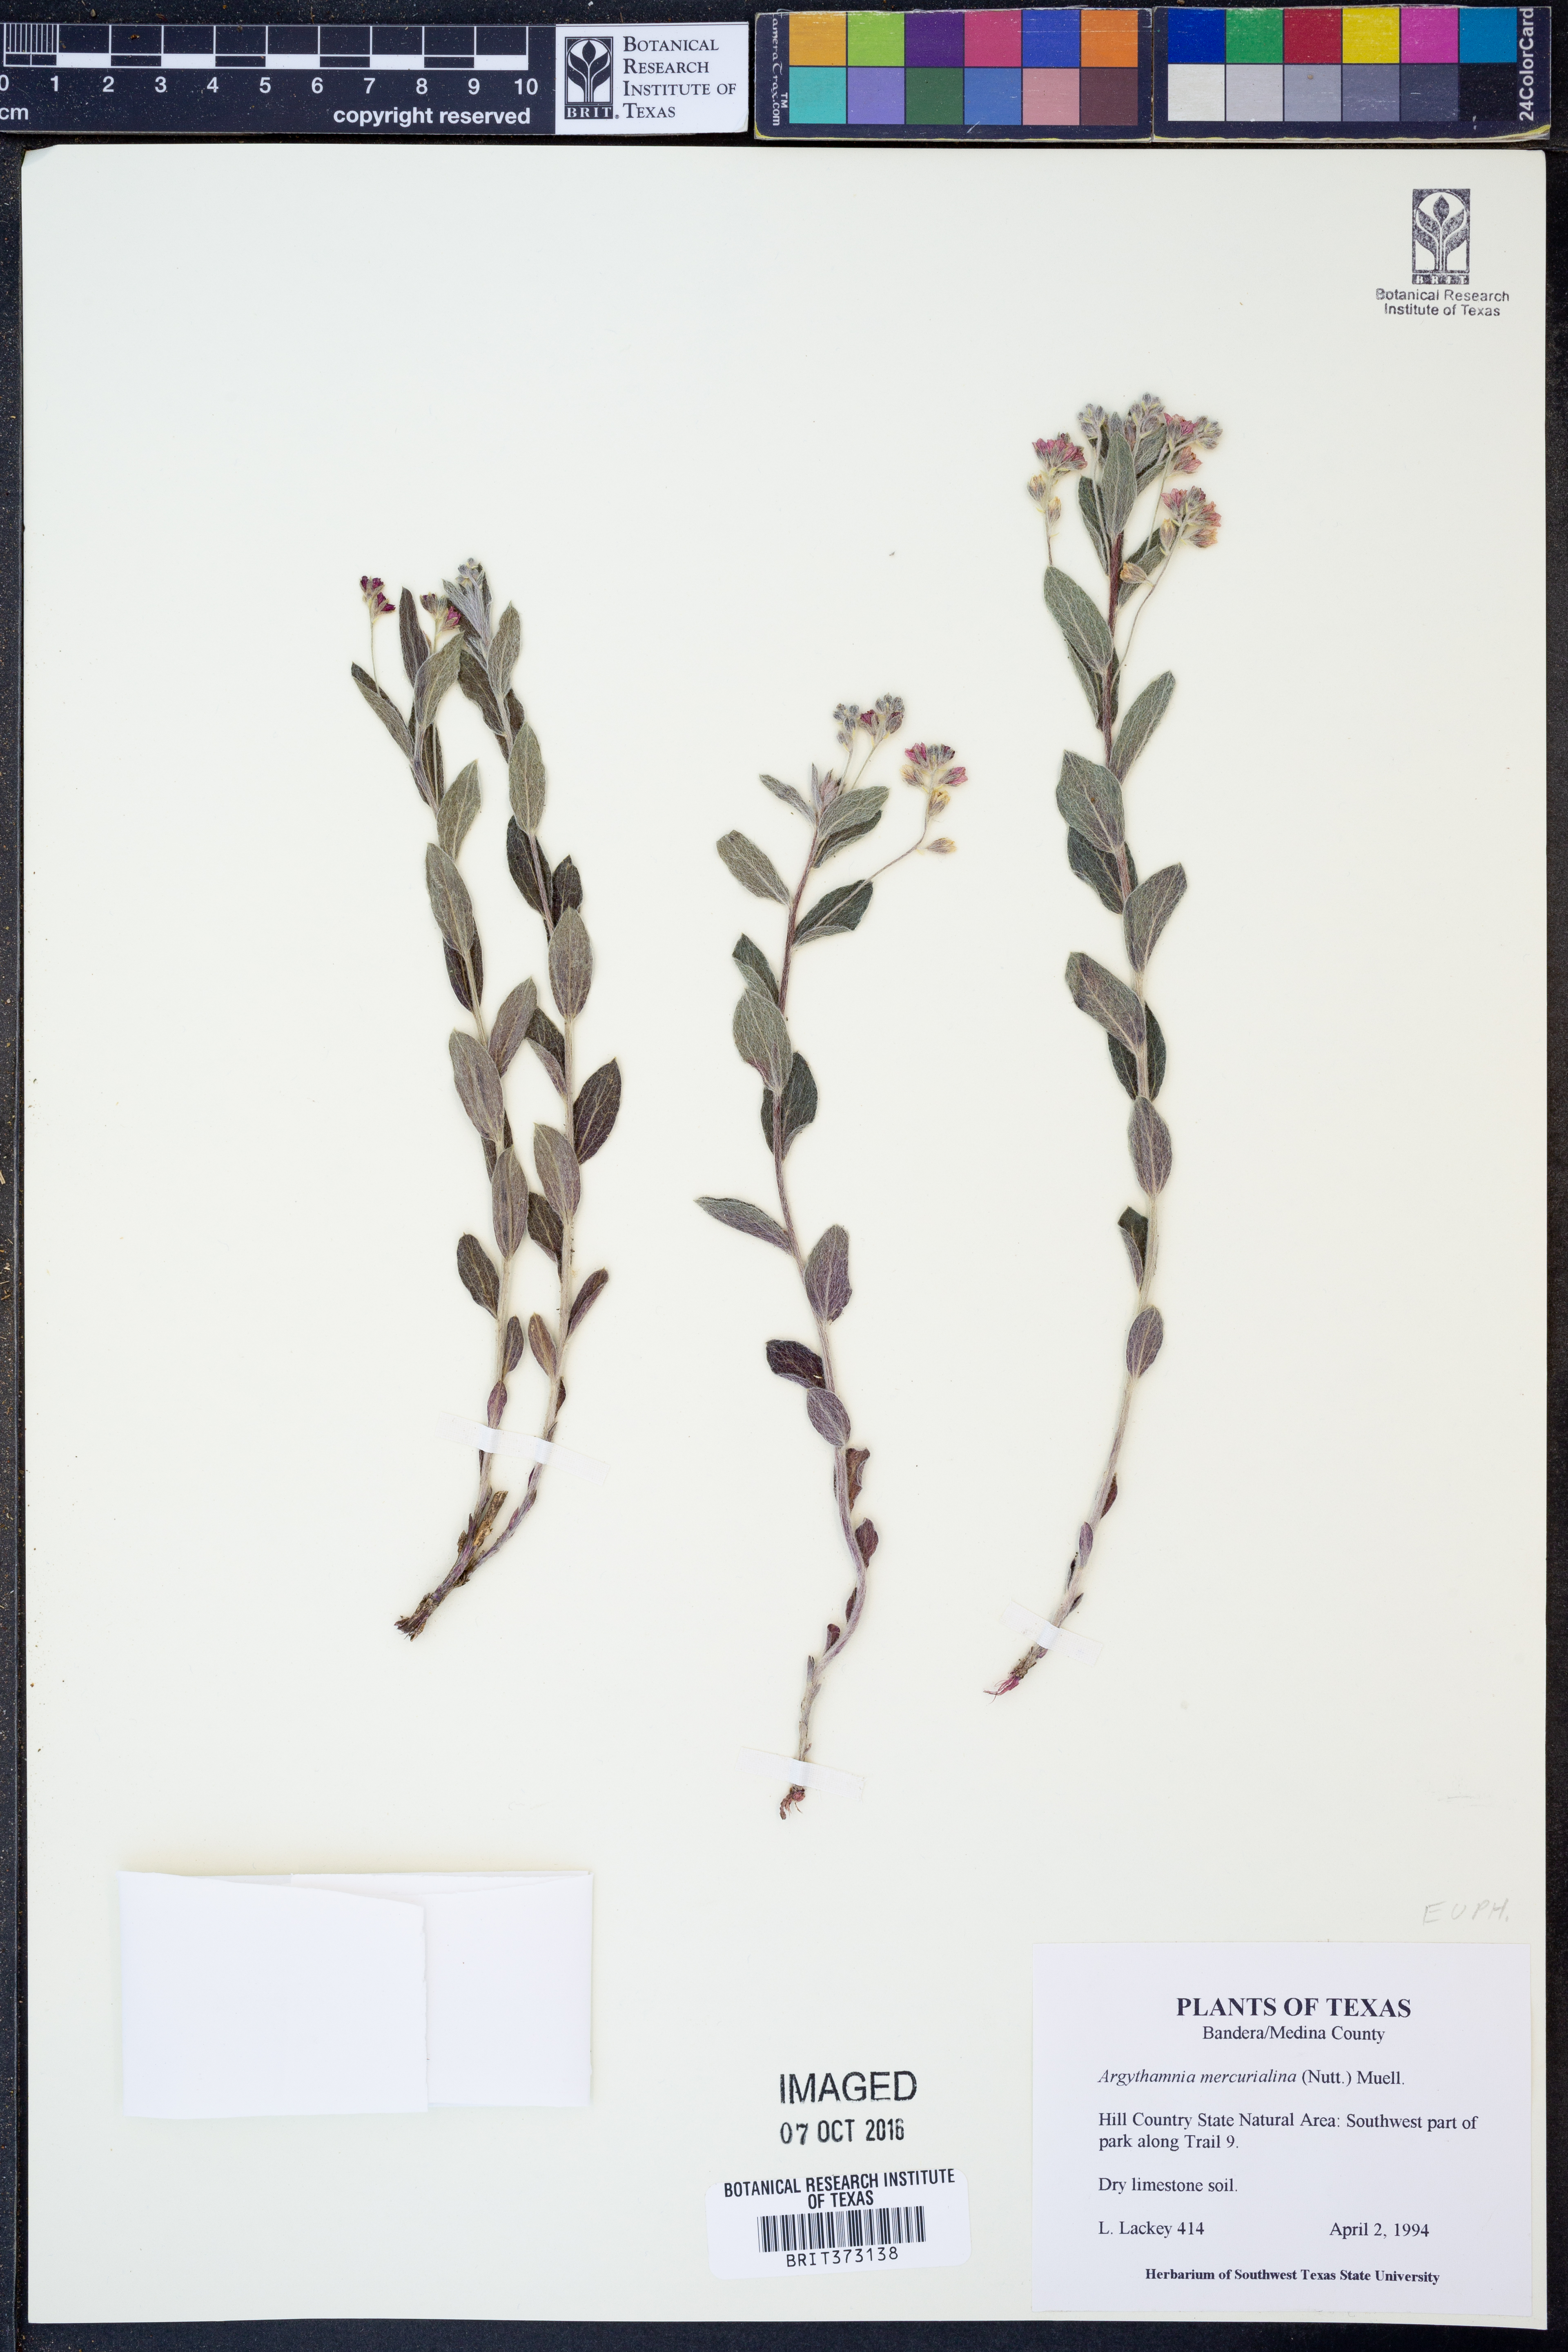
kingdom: Plantae
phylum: Tracheophyta
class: Magnoliopsida
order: Malpighiales
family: Euphorbiaceae
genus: Ditaxis
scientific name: Ditaxis mercurialina
